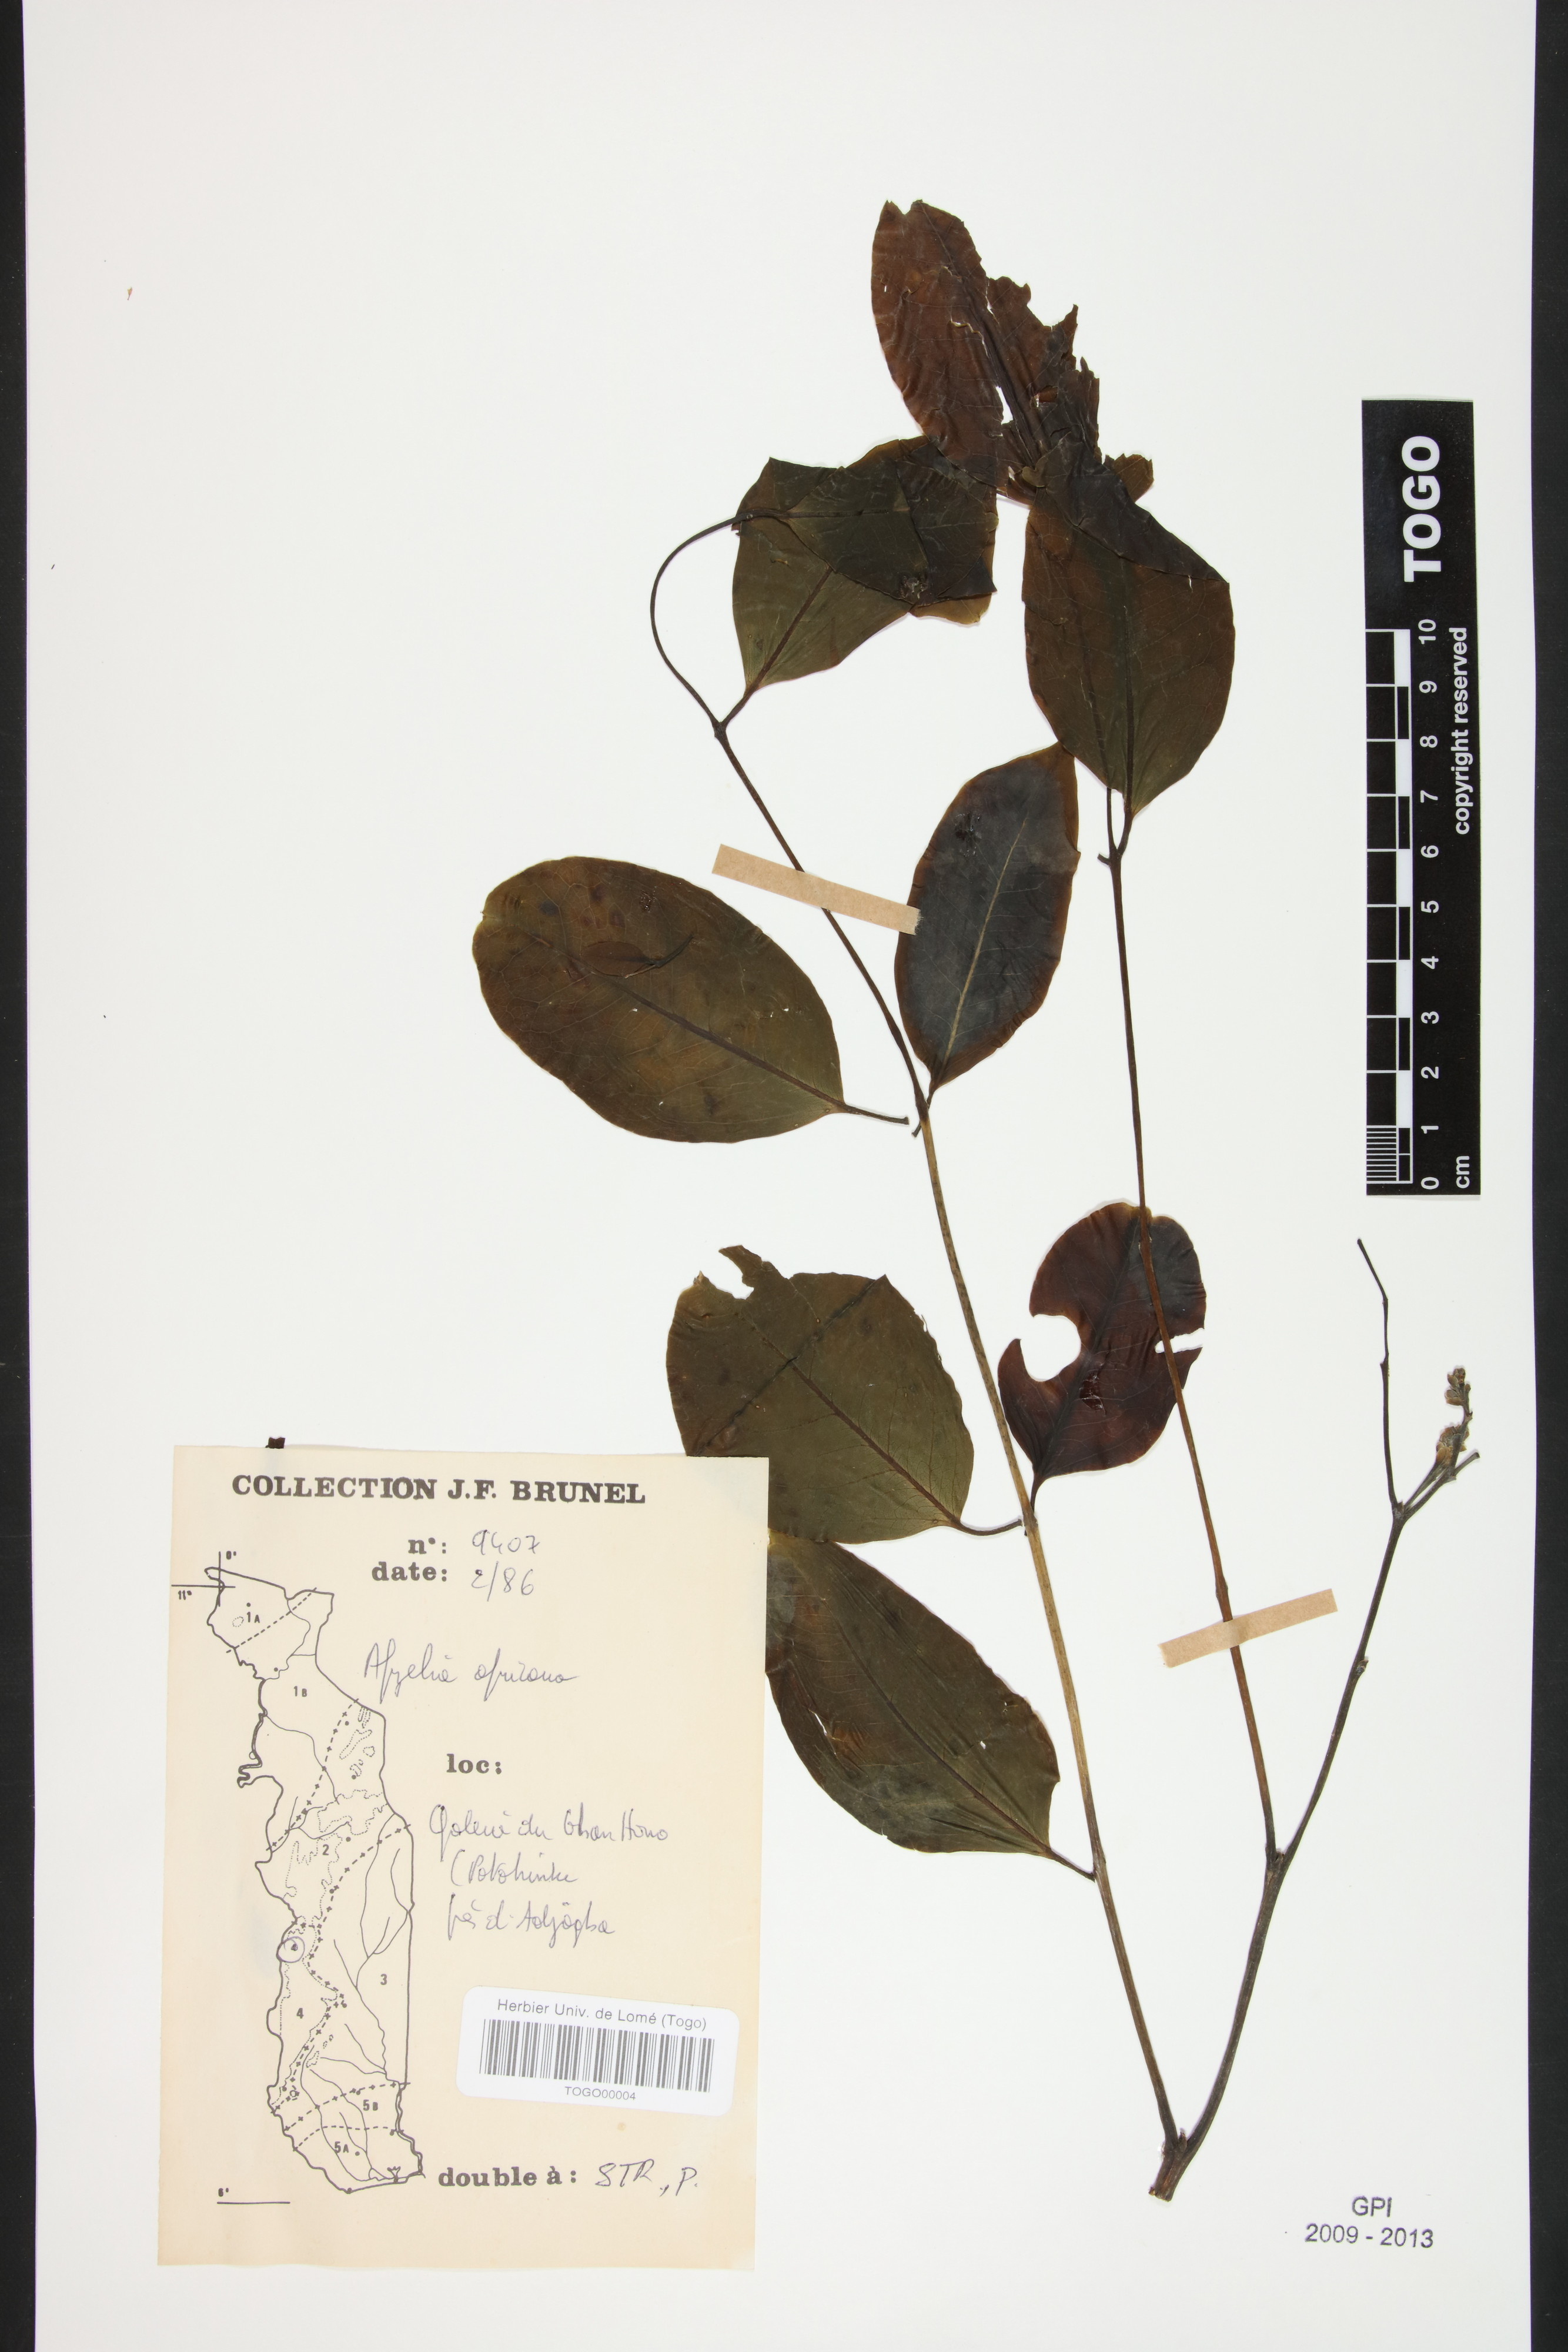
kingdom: Plantae
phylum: Tracheophyta
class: Magnoliopsida
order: Fabales
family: Fabaceae
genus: Afzelia
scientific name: Afzelia africana
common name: African-mahogany
